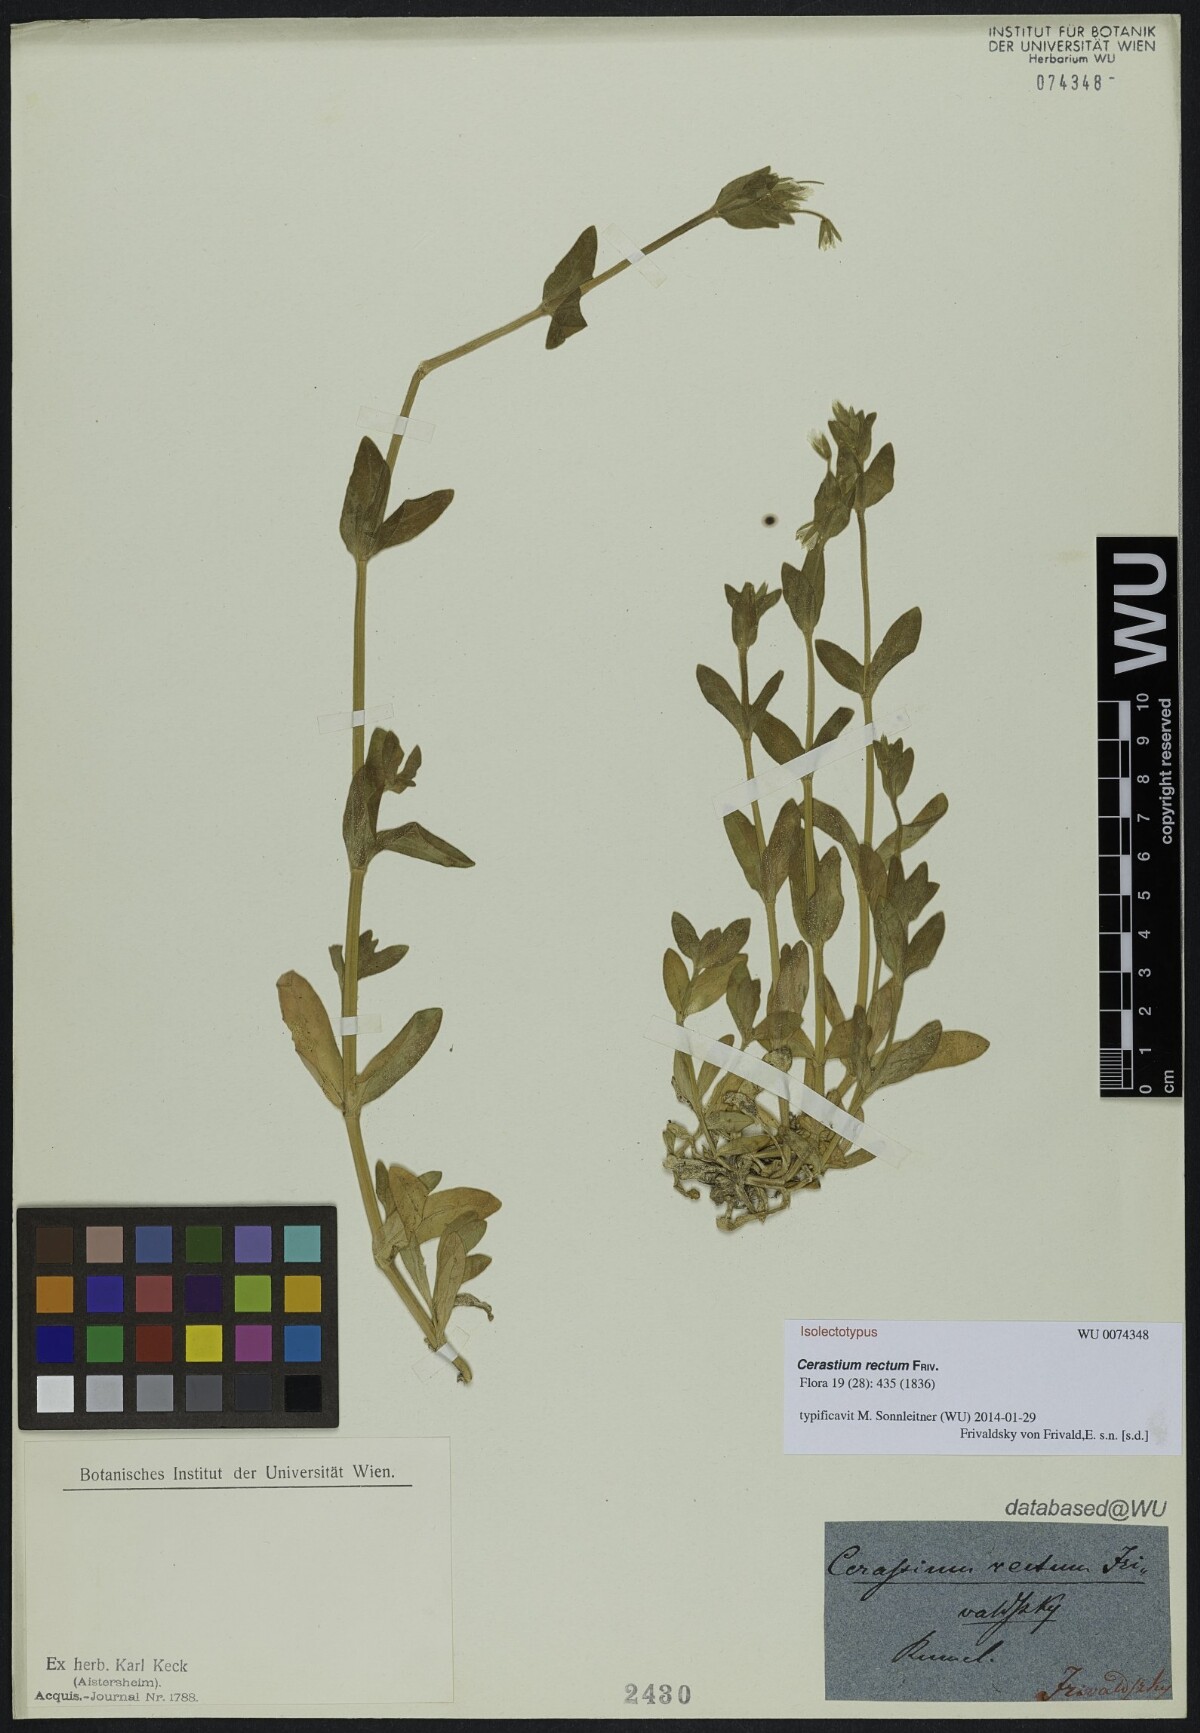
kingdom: Plantae
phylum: Tracheophyta
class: Magnoliopsida
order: Caryophyllales
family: Caryophyllaceae
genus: Cerastium
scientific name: Cerastium rectum
